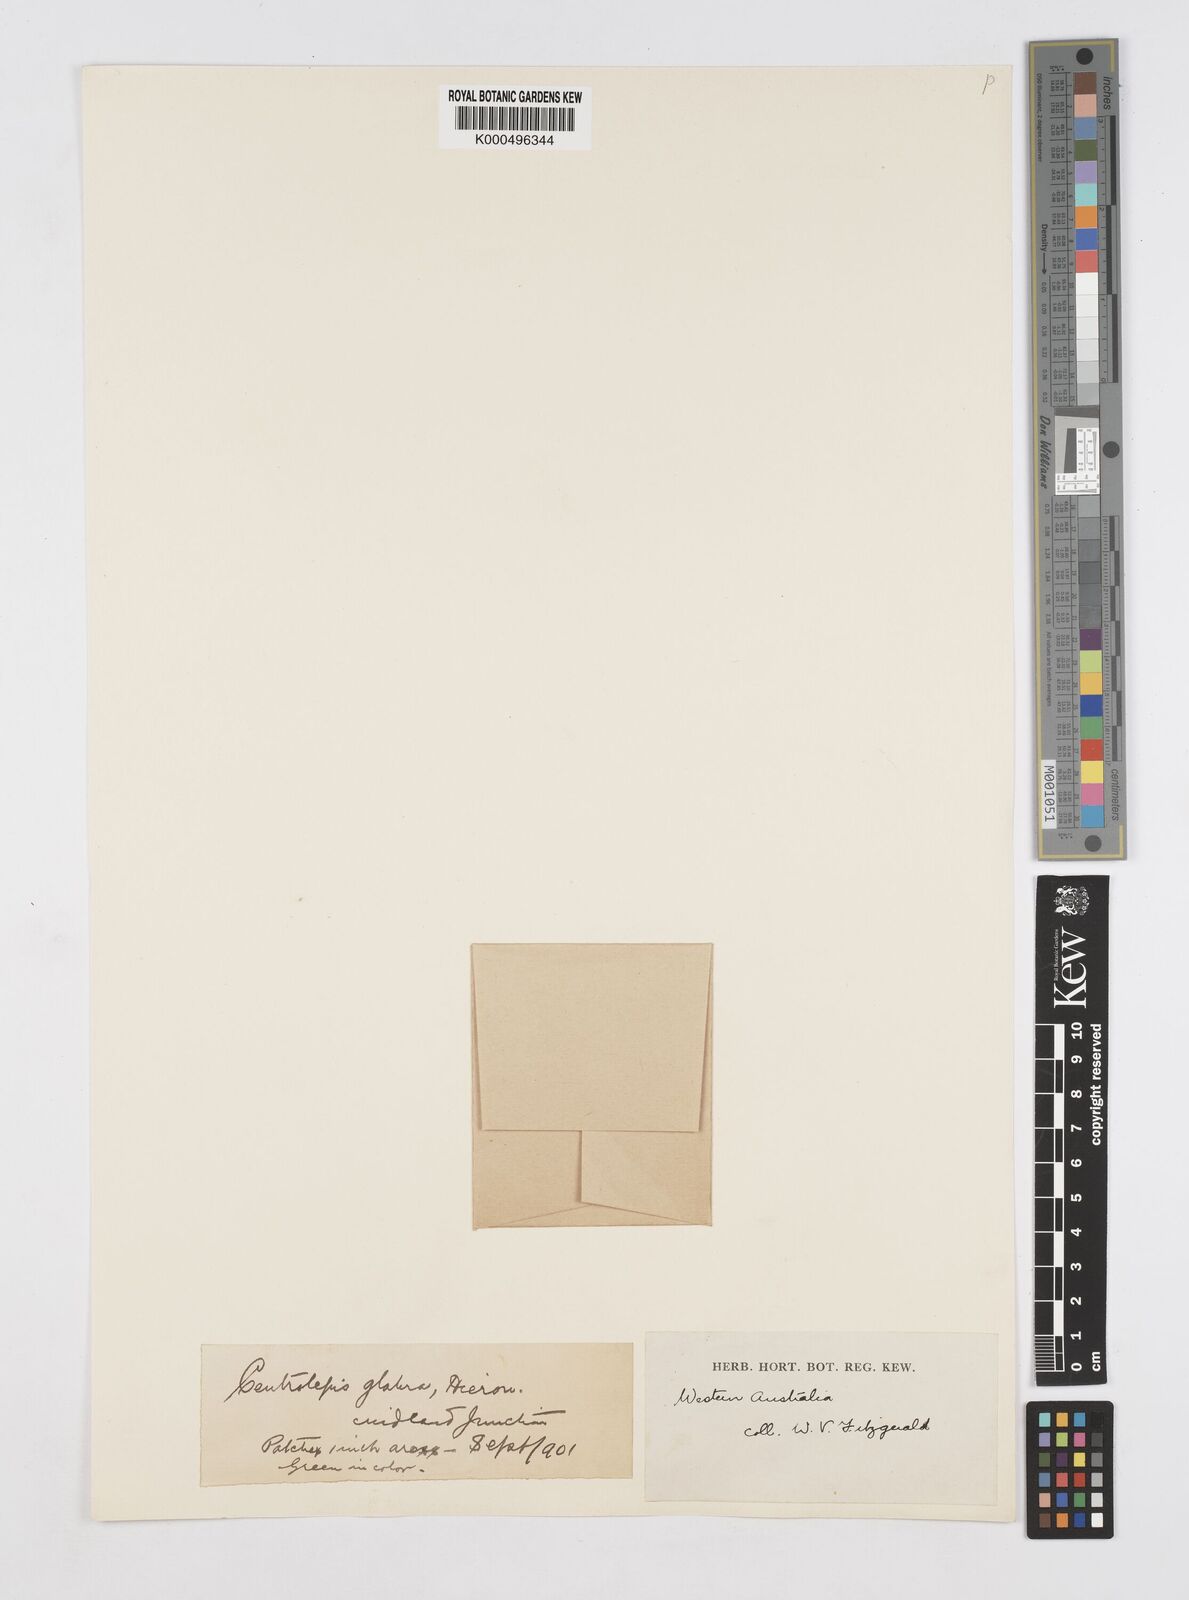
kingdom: Plantae
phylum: Tracheophyta
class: Liliopsida
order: Poales
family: Restionaceae
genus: Centrolepis
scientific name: Centrolepis glabra
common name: Smooth centrolepis
